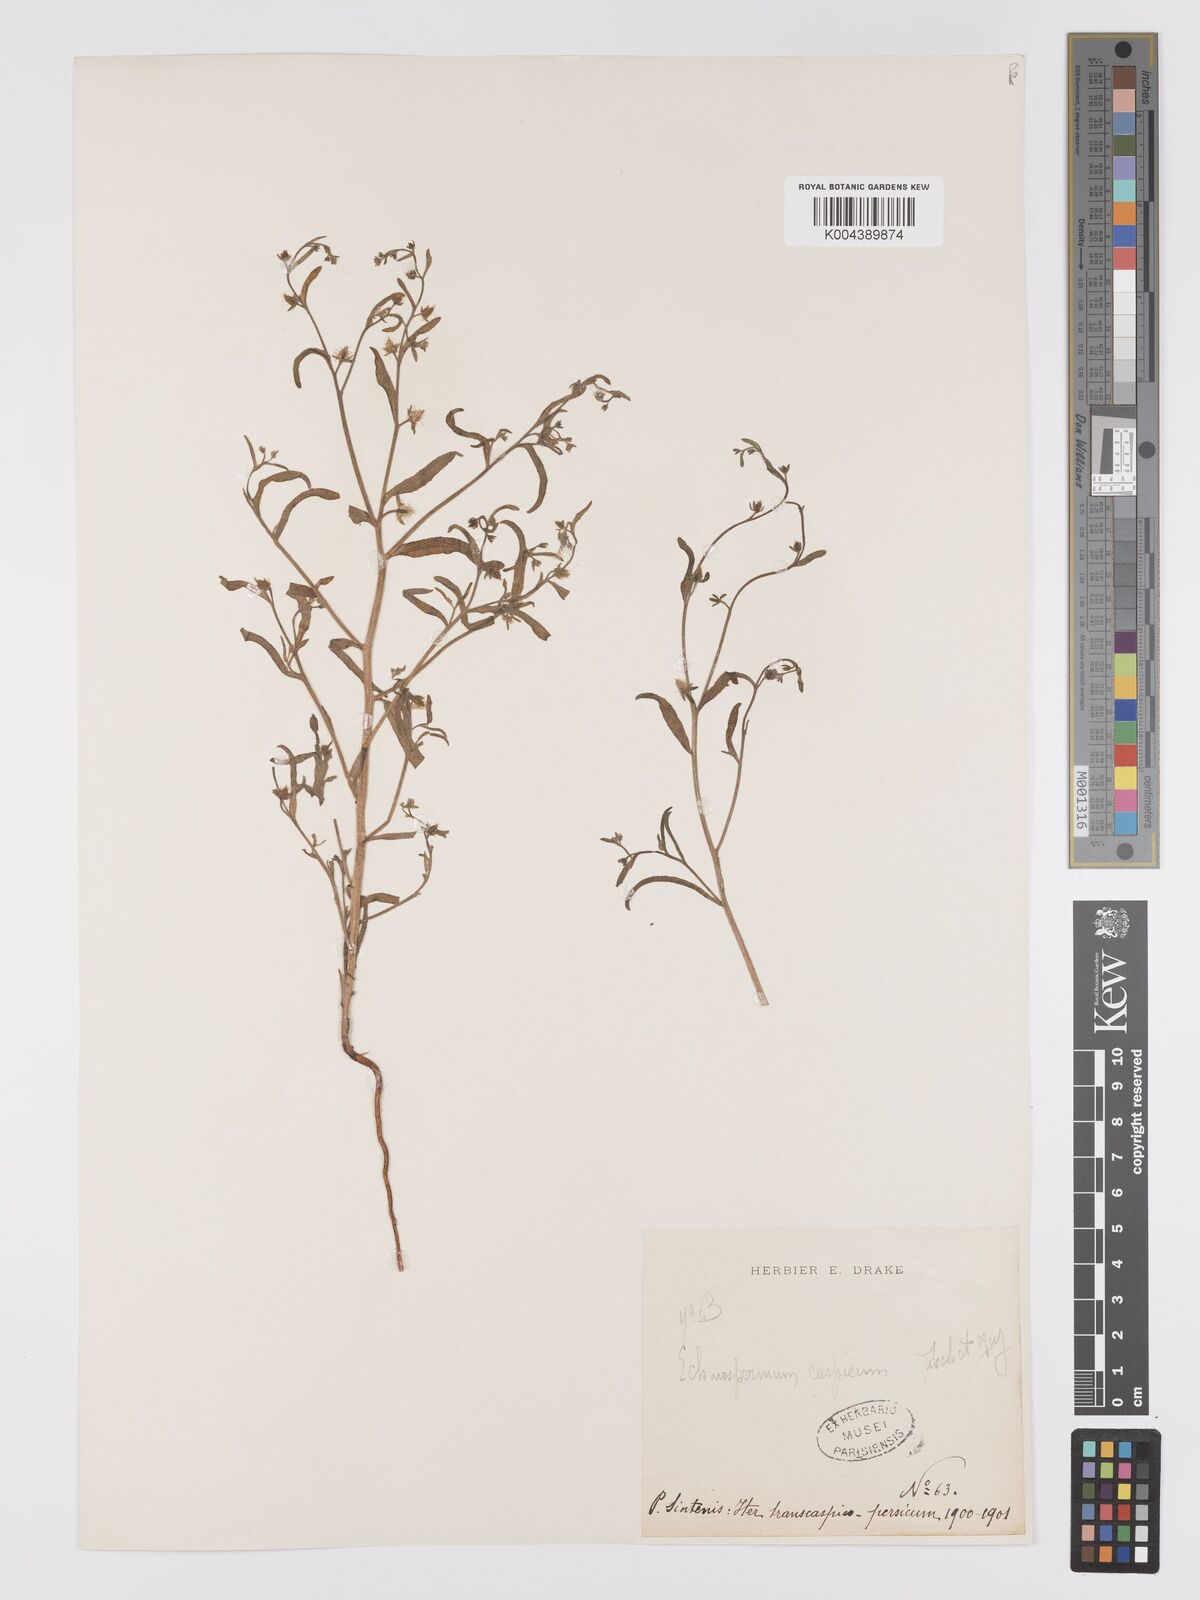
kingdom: Plantae
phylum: Tracheophyta
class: Magnoliopsida
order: Boraginales
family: Boraginaceae
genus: Lappula
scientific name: Lappula patula
